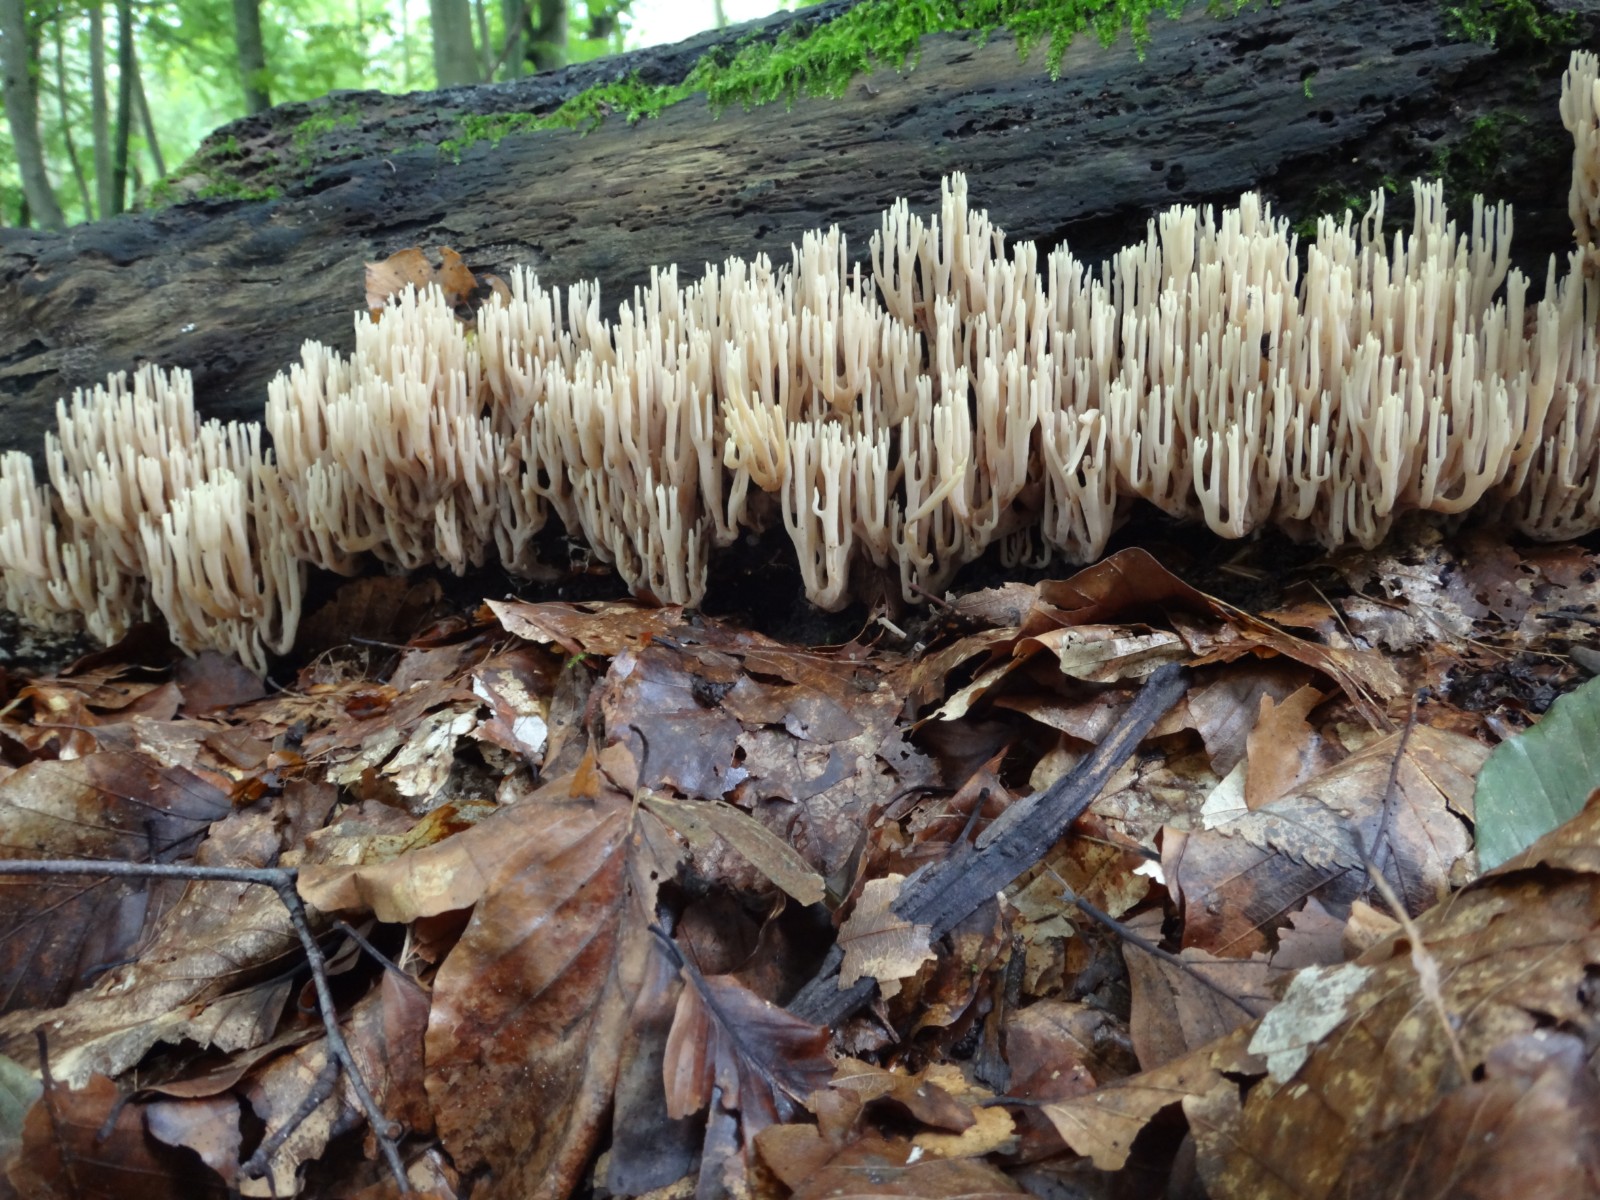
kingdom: Fungi
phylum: Basidiomycota
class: Agaricomycetes
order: Gomphales
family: Gomphaceae
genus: Ramaria
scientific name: Ramaria stricta
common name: rank koralsvamp
